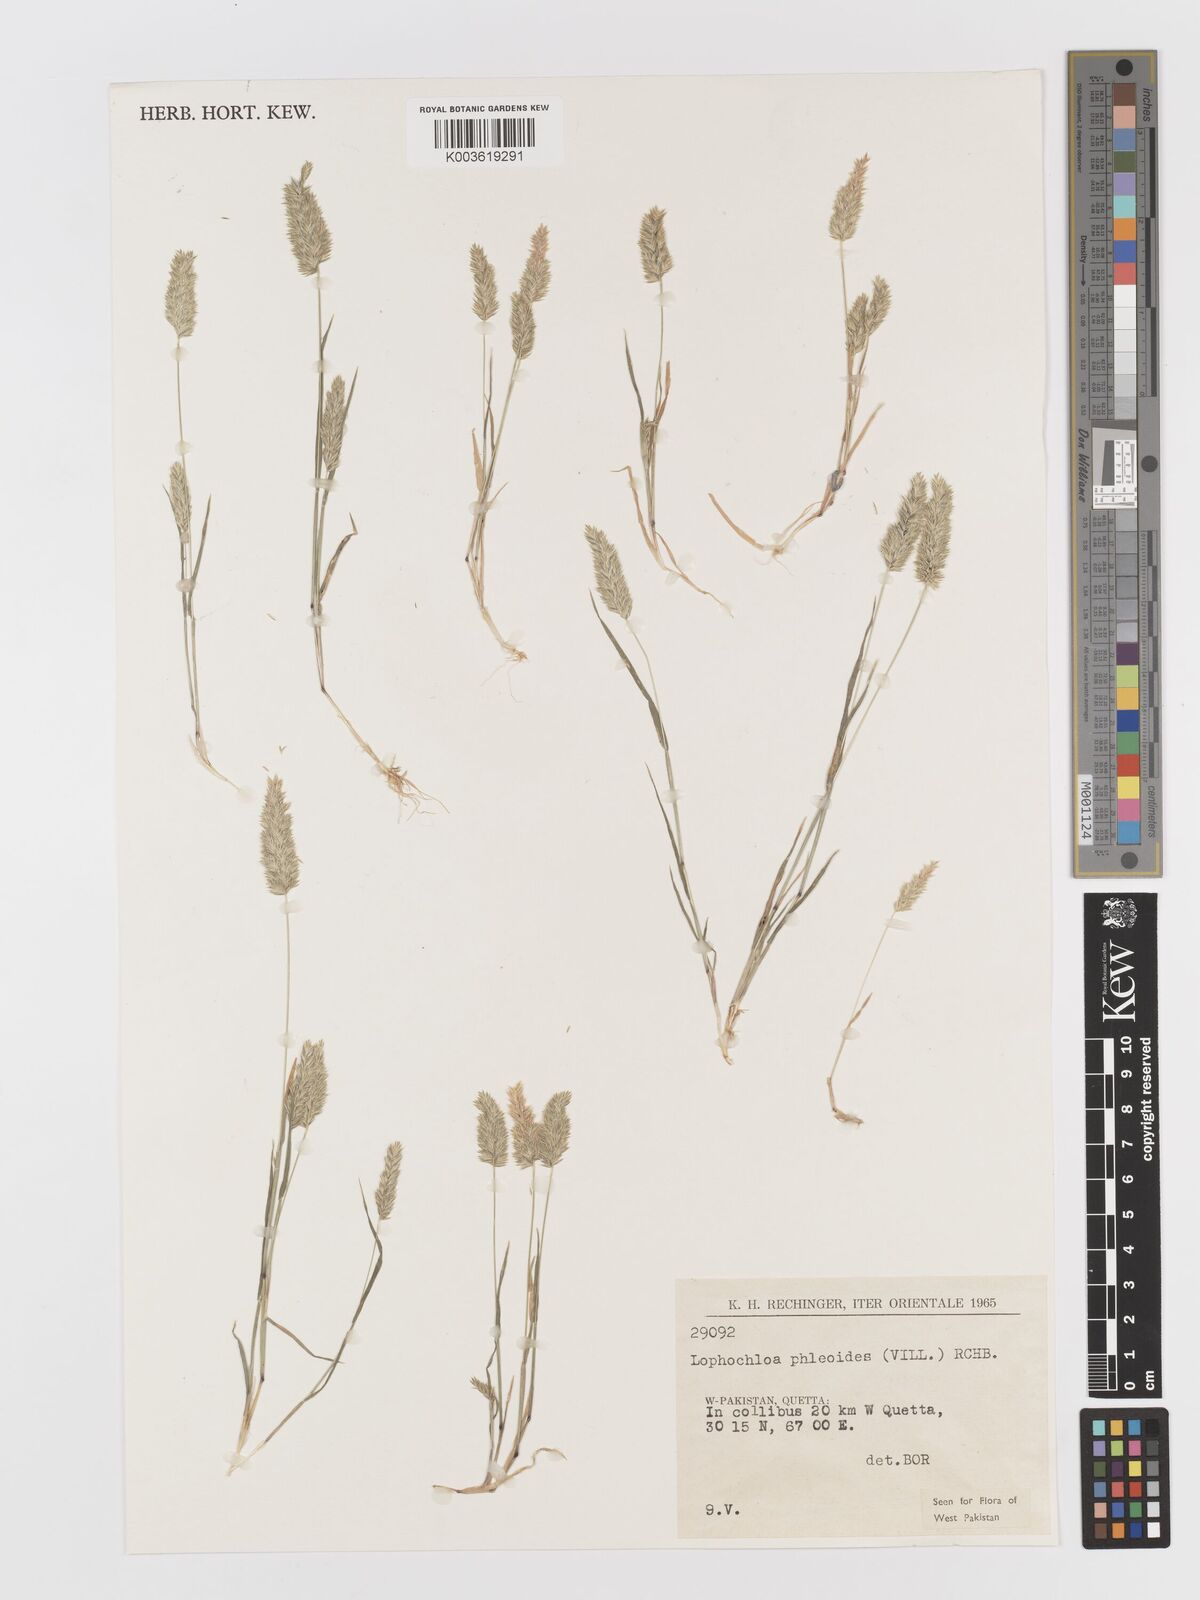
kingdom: Plantae
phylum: Tracheophyta
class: Liliopsida
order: Poales
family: Poaceae
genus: Rostraria
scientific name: Rostraria cristata
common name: Mediterranean hair-grass
